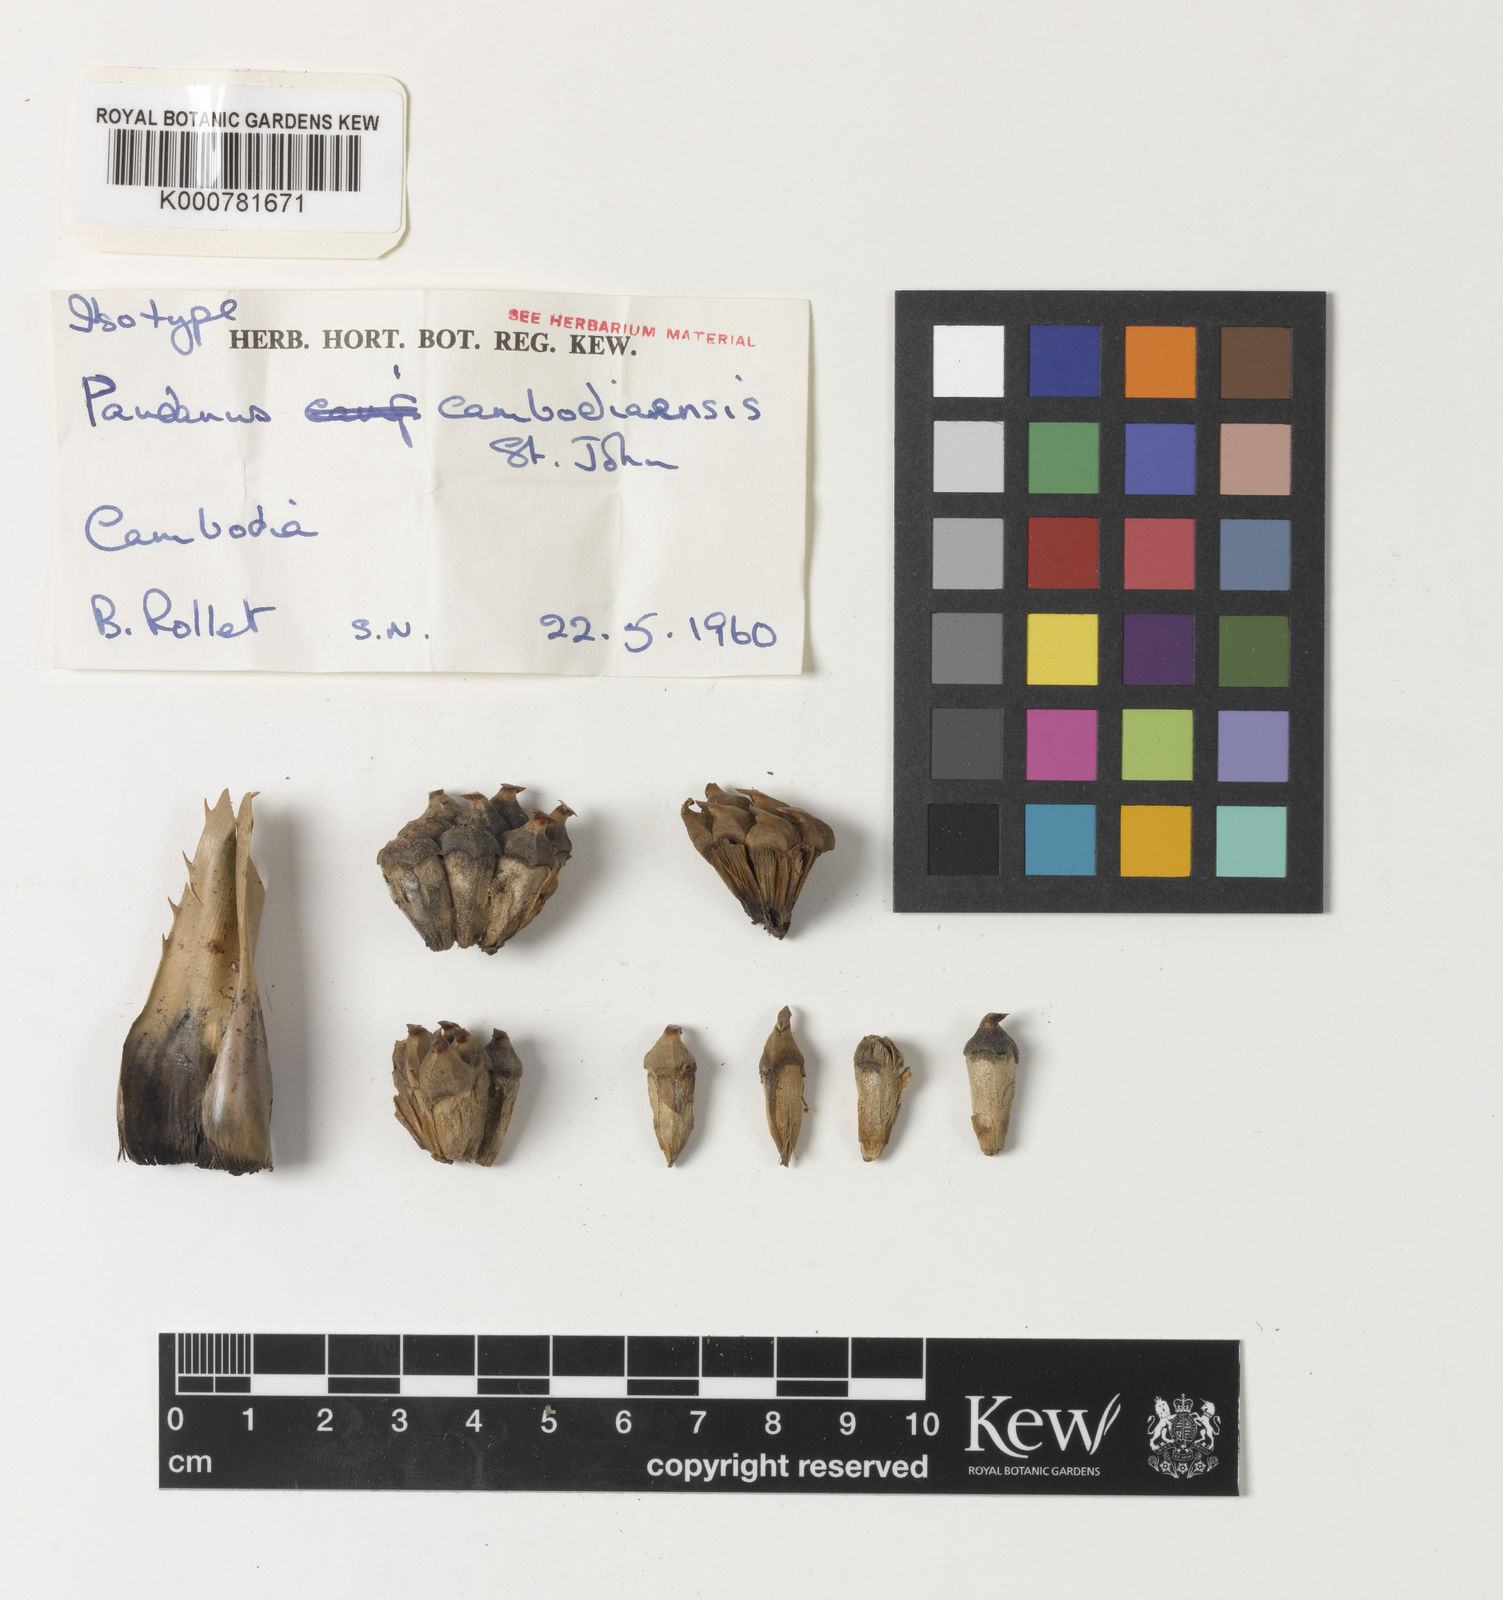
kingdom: Plantae
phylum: Tracheophyta
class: Liliopsida
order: Pandanales
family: Pandanaceae
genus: Pandanus
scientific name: Pandanus
